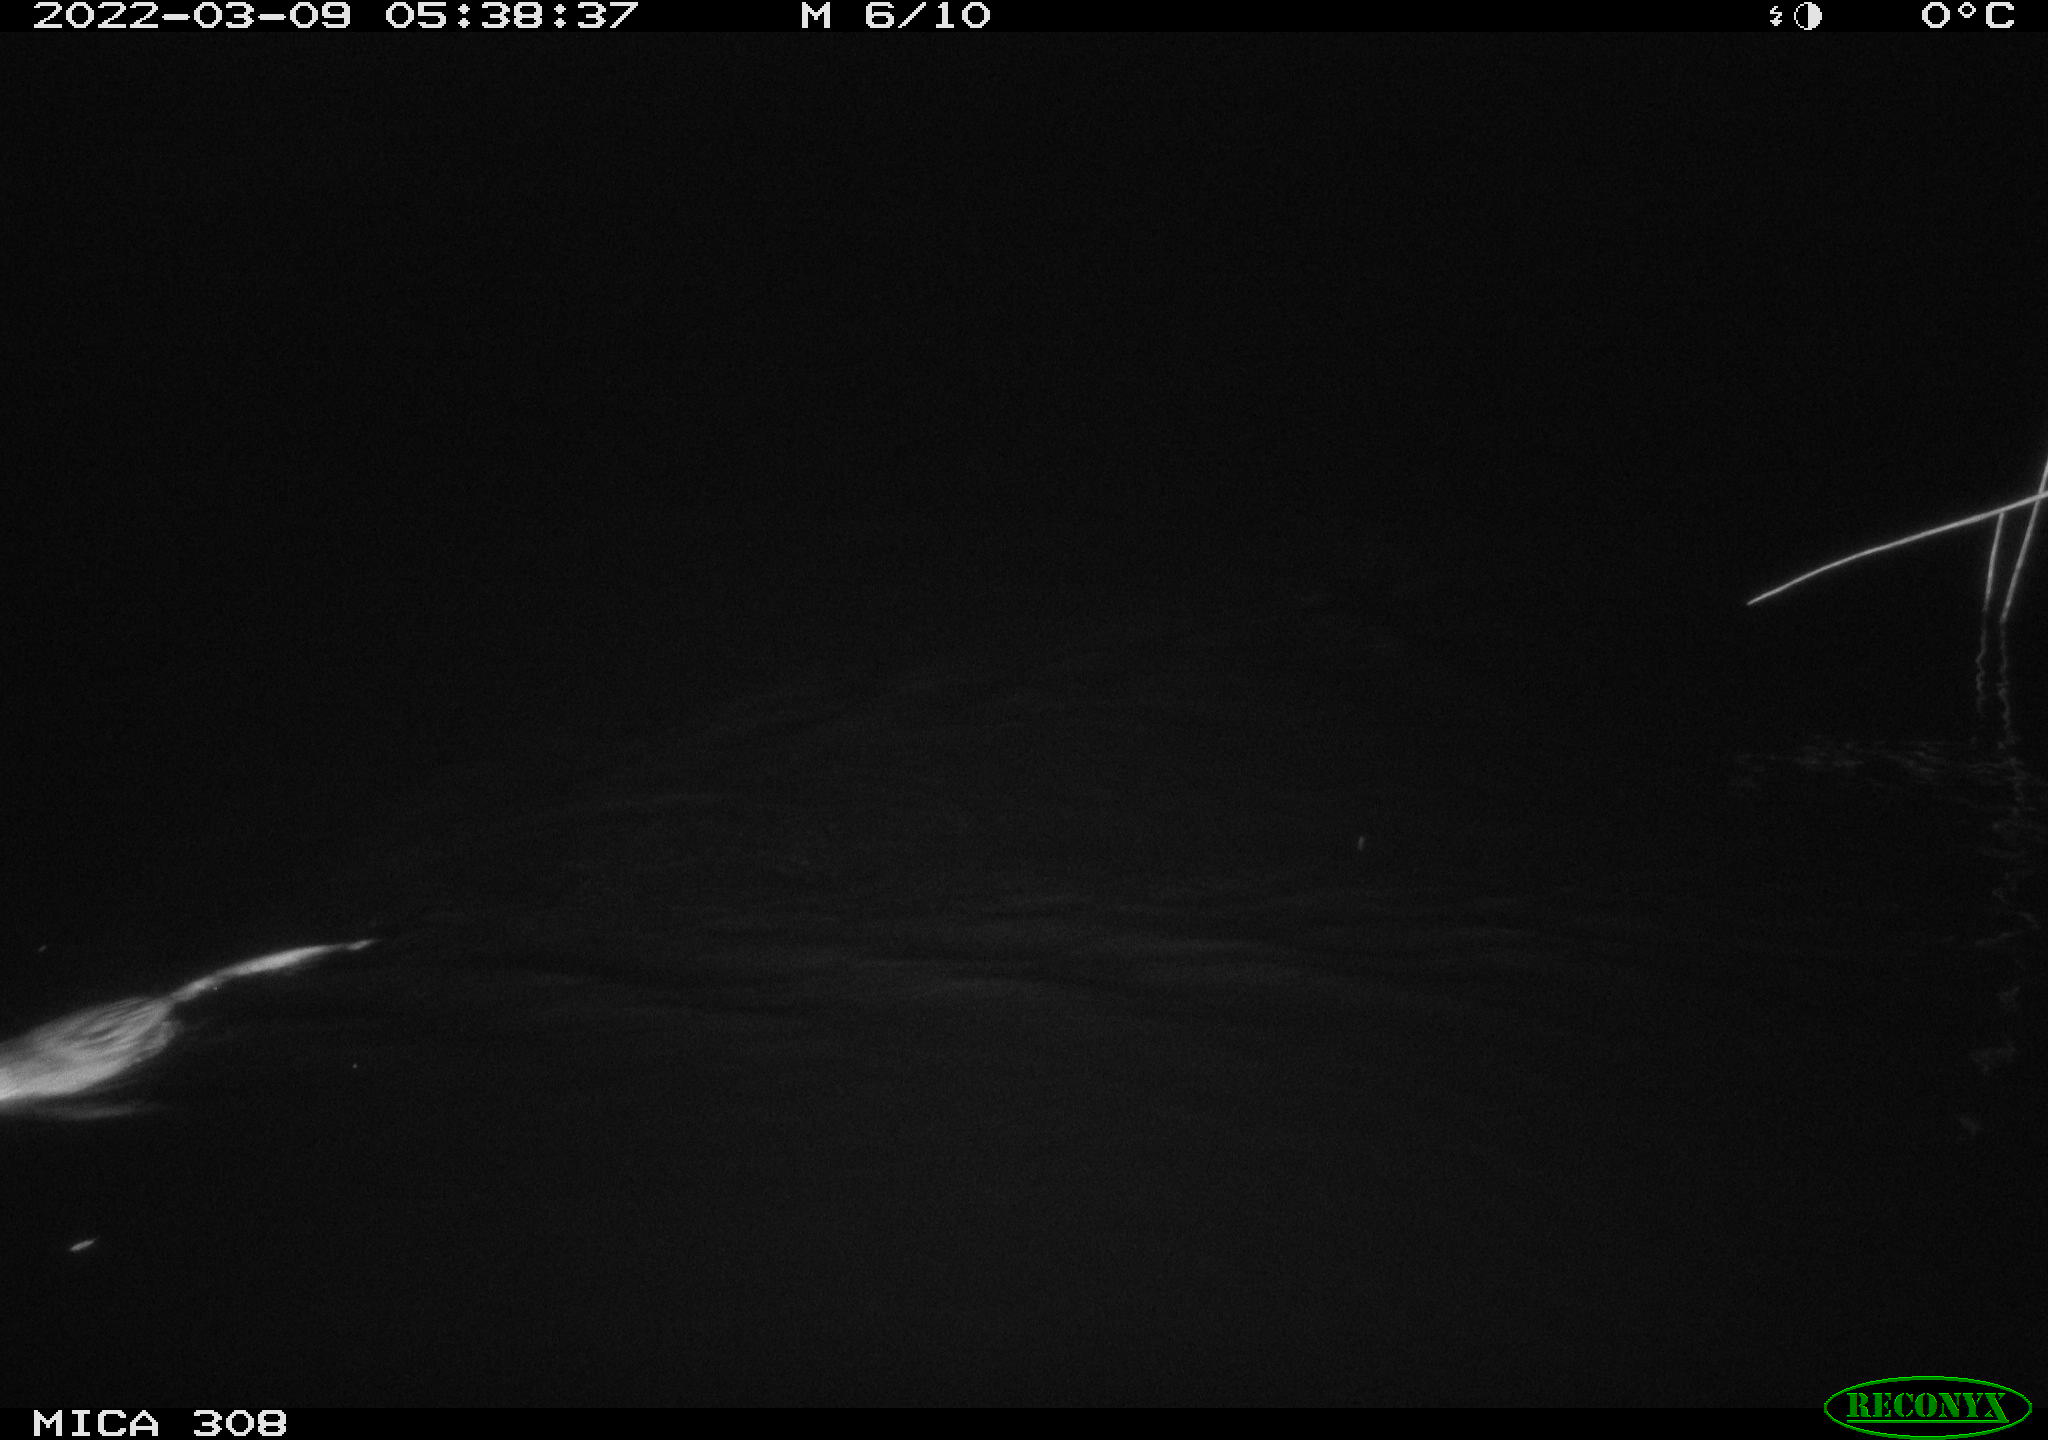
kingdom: Animalia
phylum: Chordata
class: Mammalia
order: Rodentia
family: Cricetidae
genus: Ondatra
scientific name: Ondatra zibethicus
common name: Muskrat
